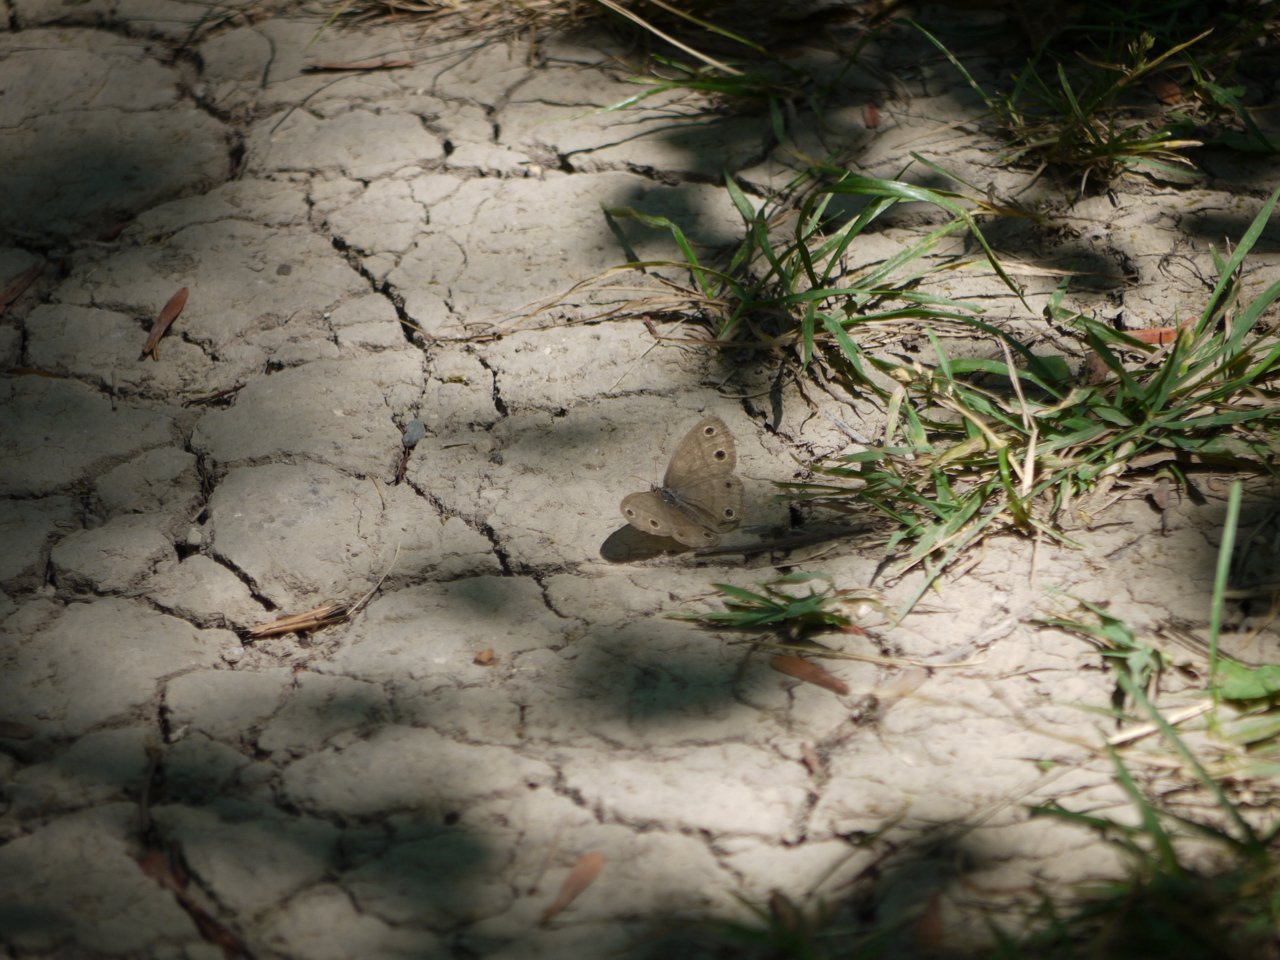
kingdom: Animalia
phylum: Arthropoda
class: Insecta
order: Lepidoptera
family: Nymphalidae
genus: Euptychia
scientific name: Euptychia cymela
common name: Little Wood Satyr
